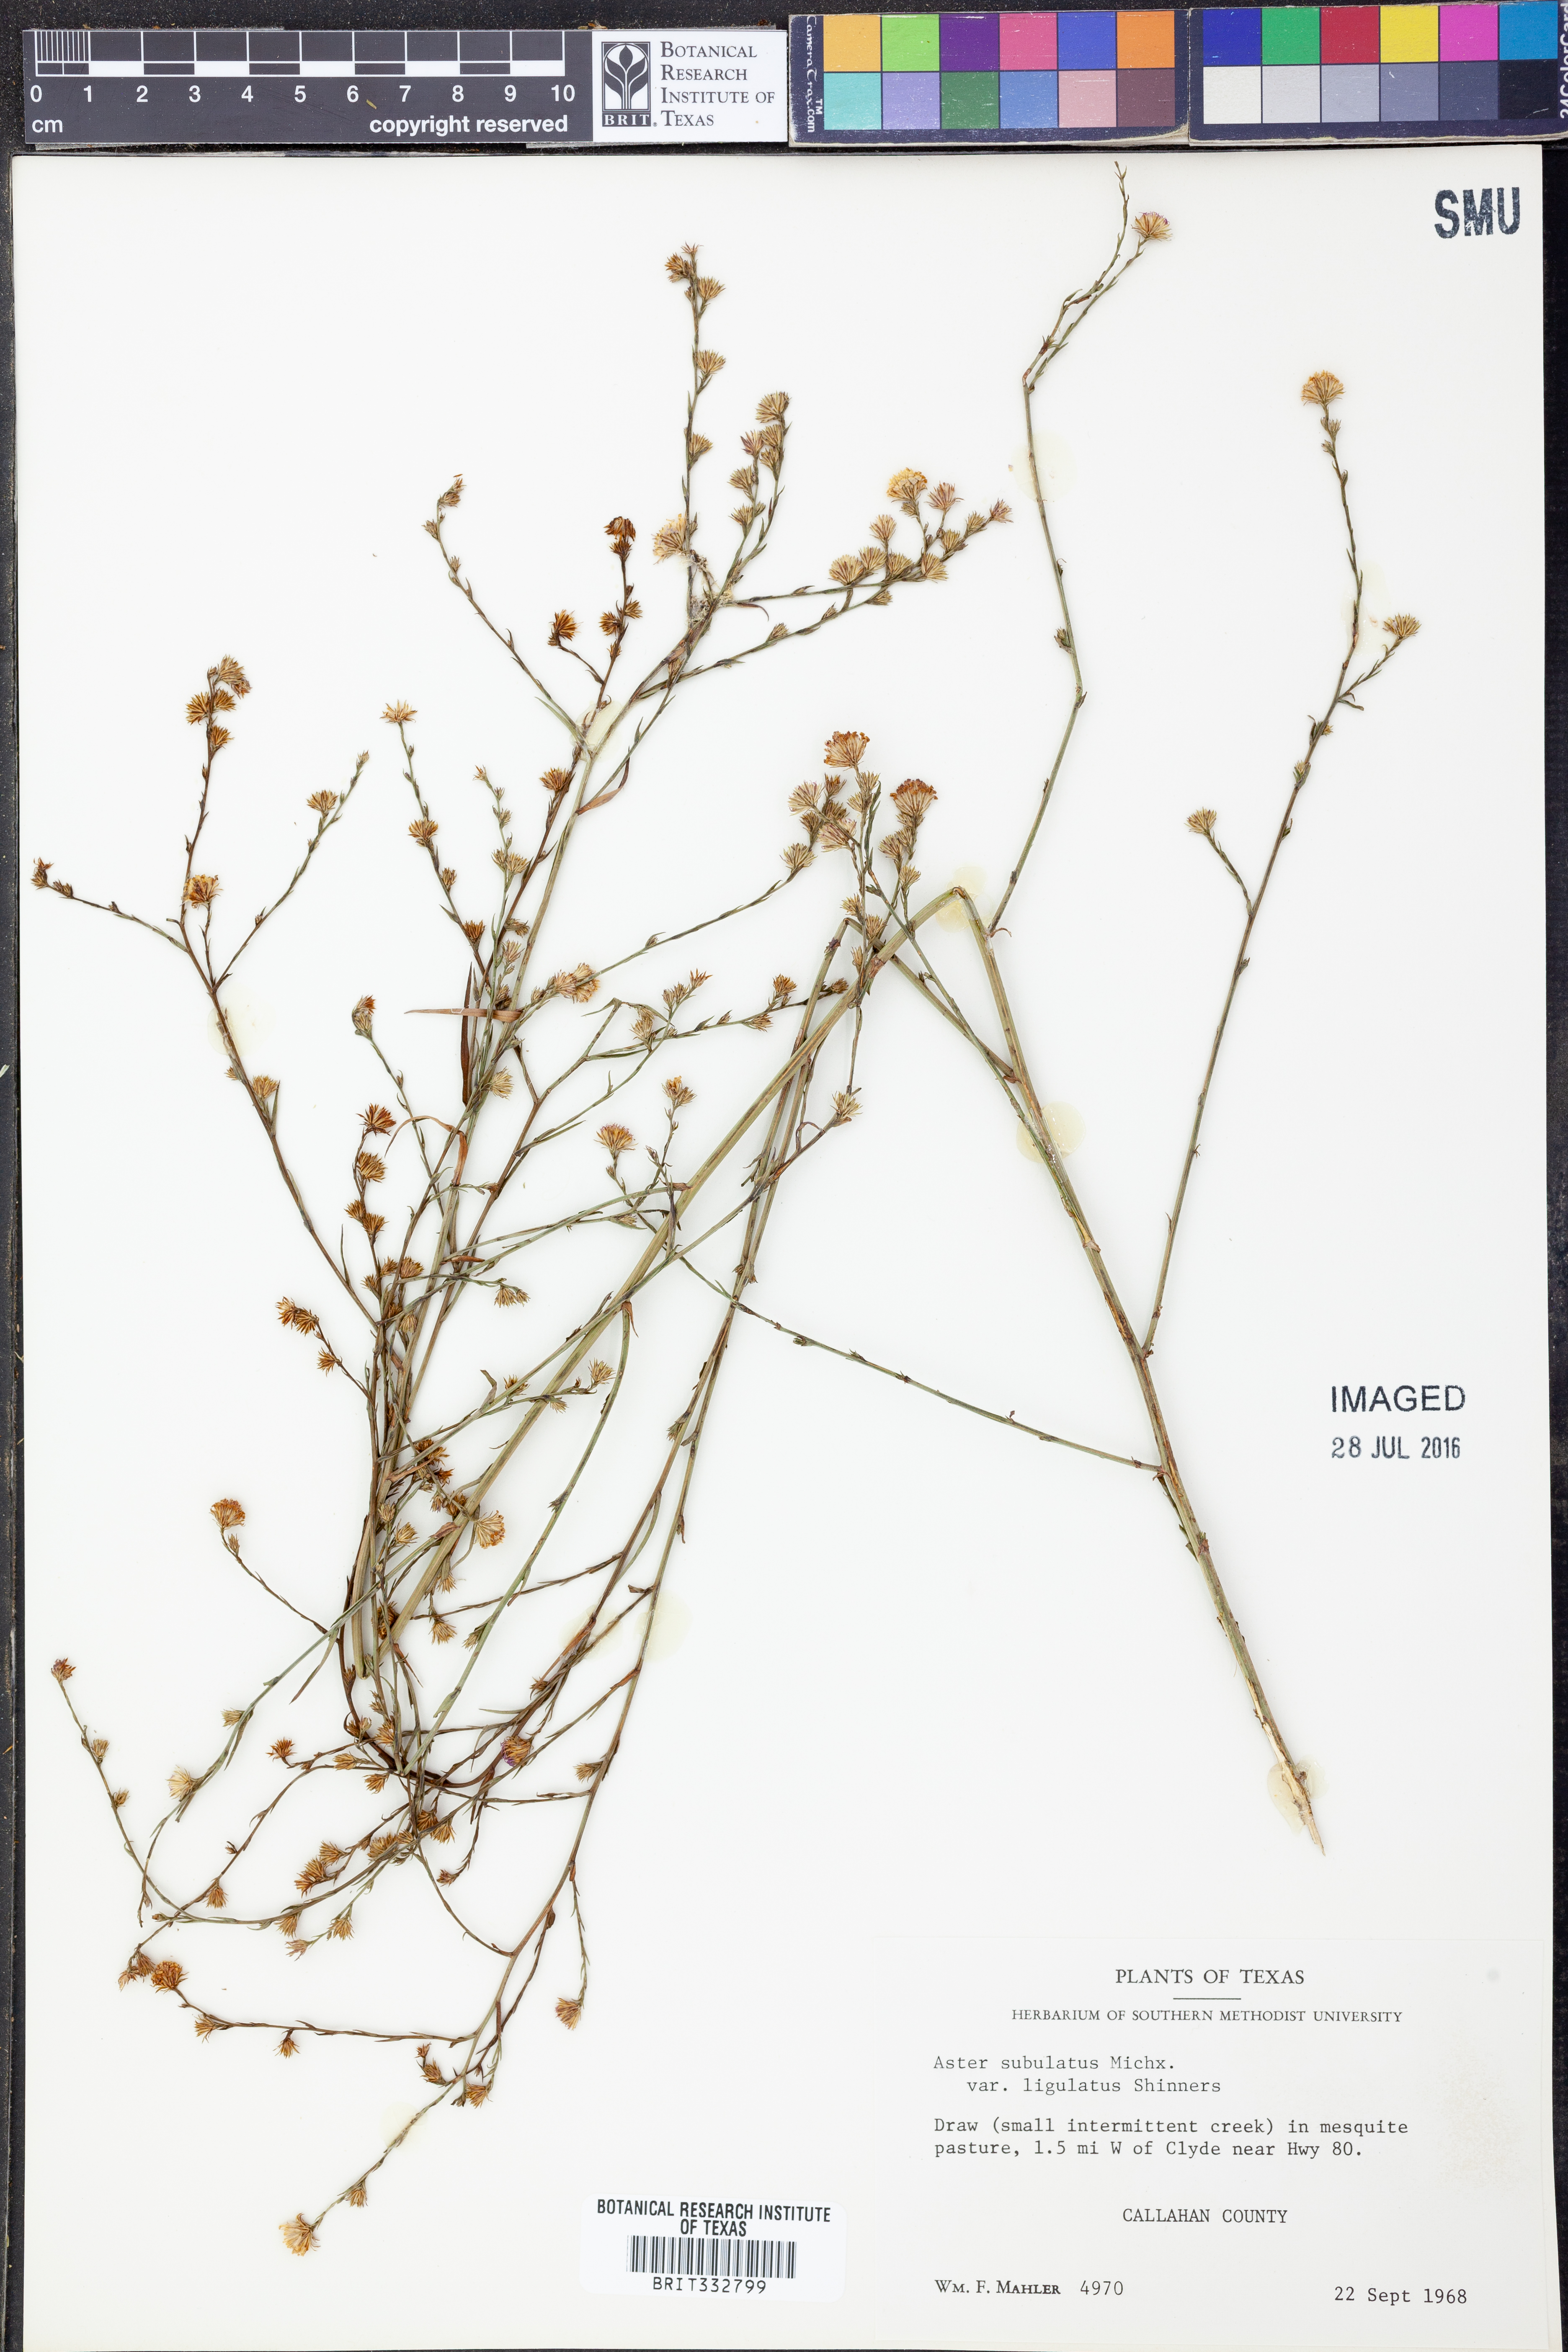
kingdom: Plantae
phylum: Tracheophyta
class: Magnoliopsida
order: Asterales
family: Asteraceae
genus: Symphyotrichum
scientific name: Symphyotrichum divaricatum
